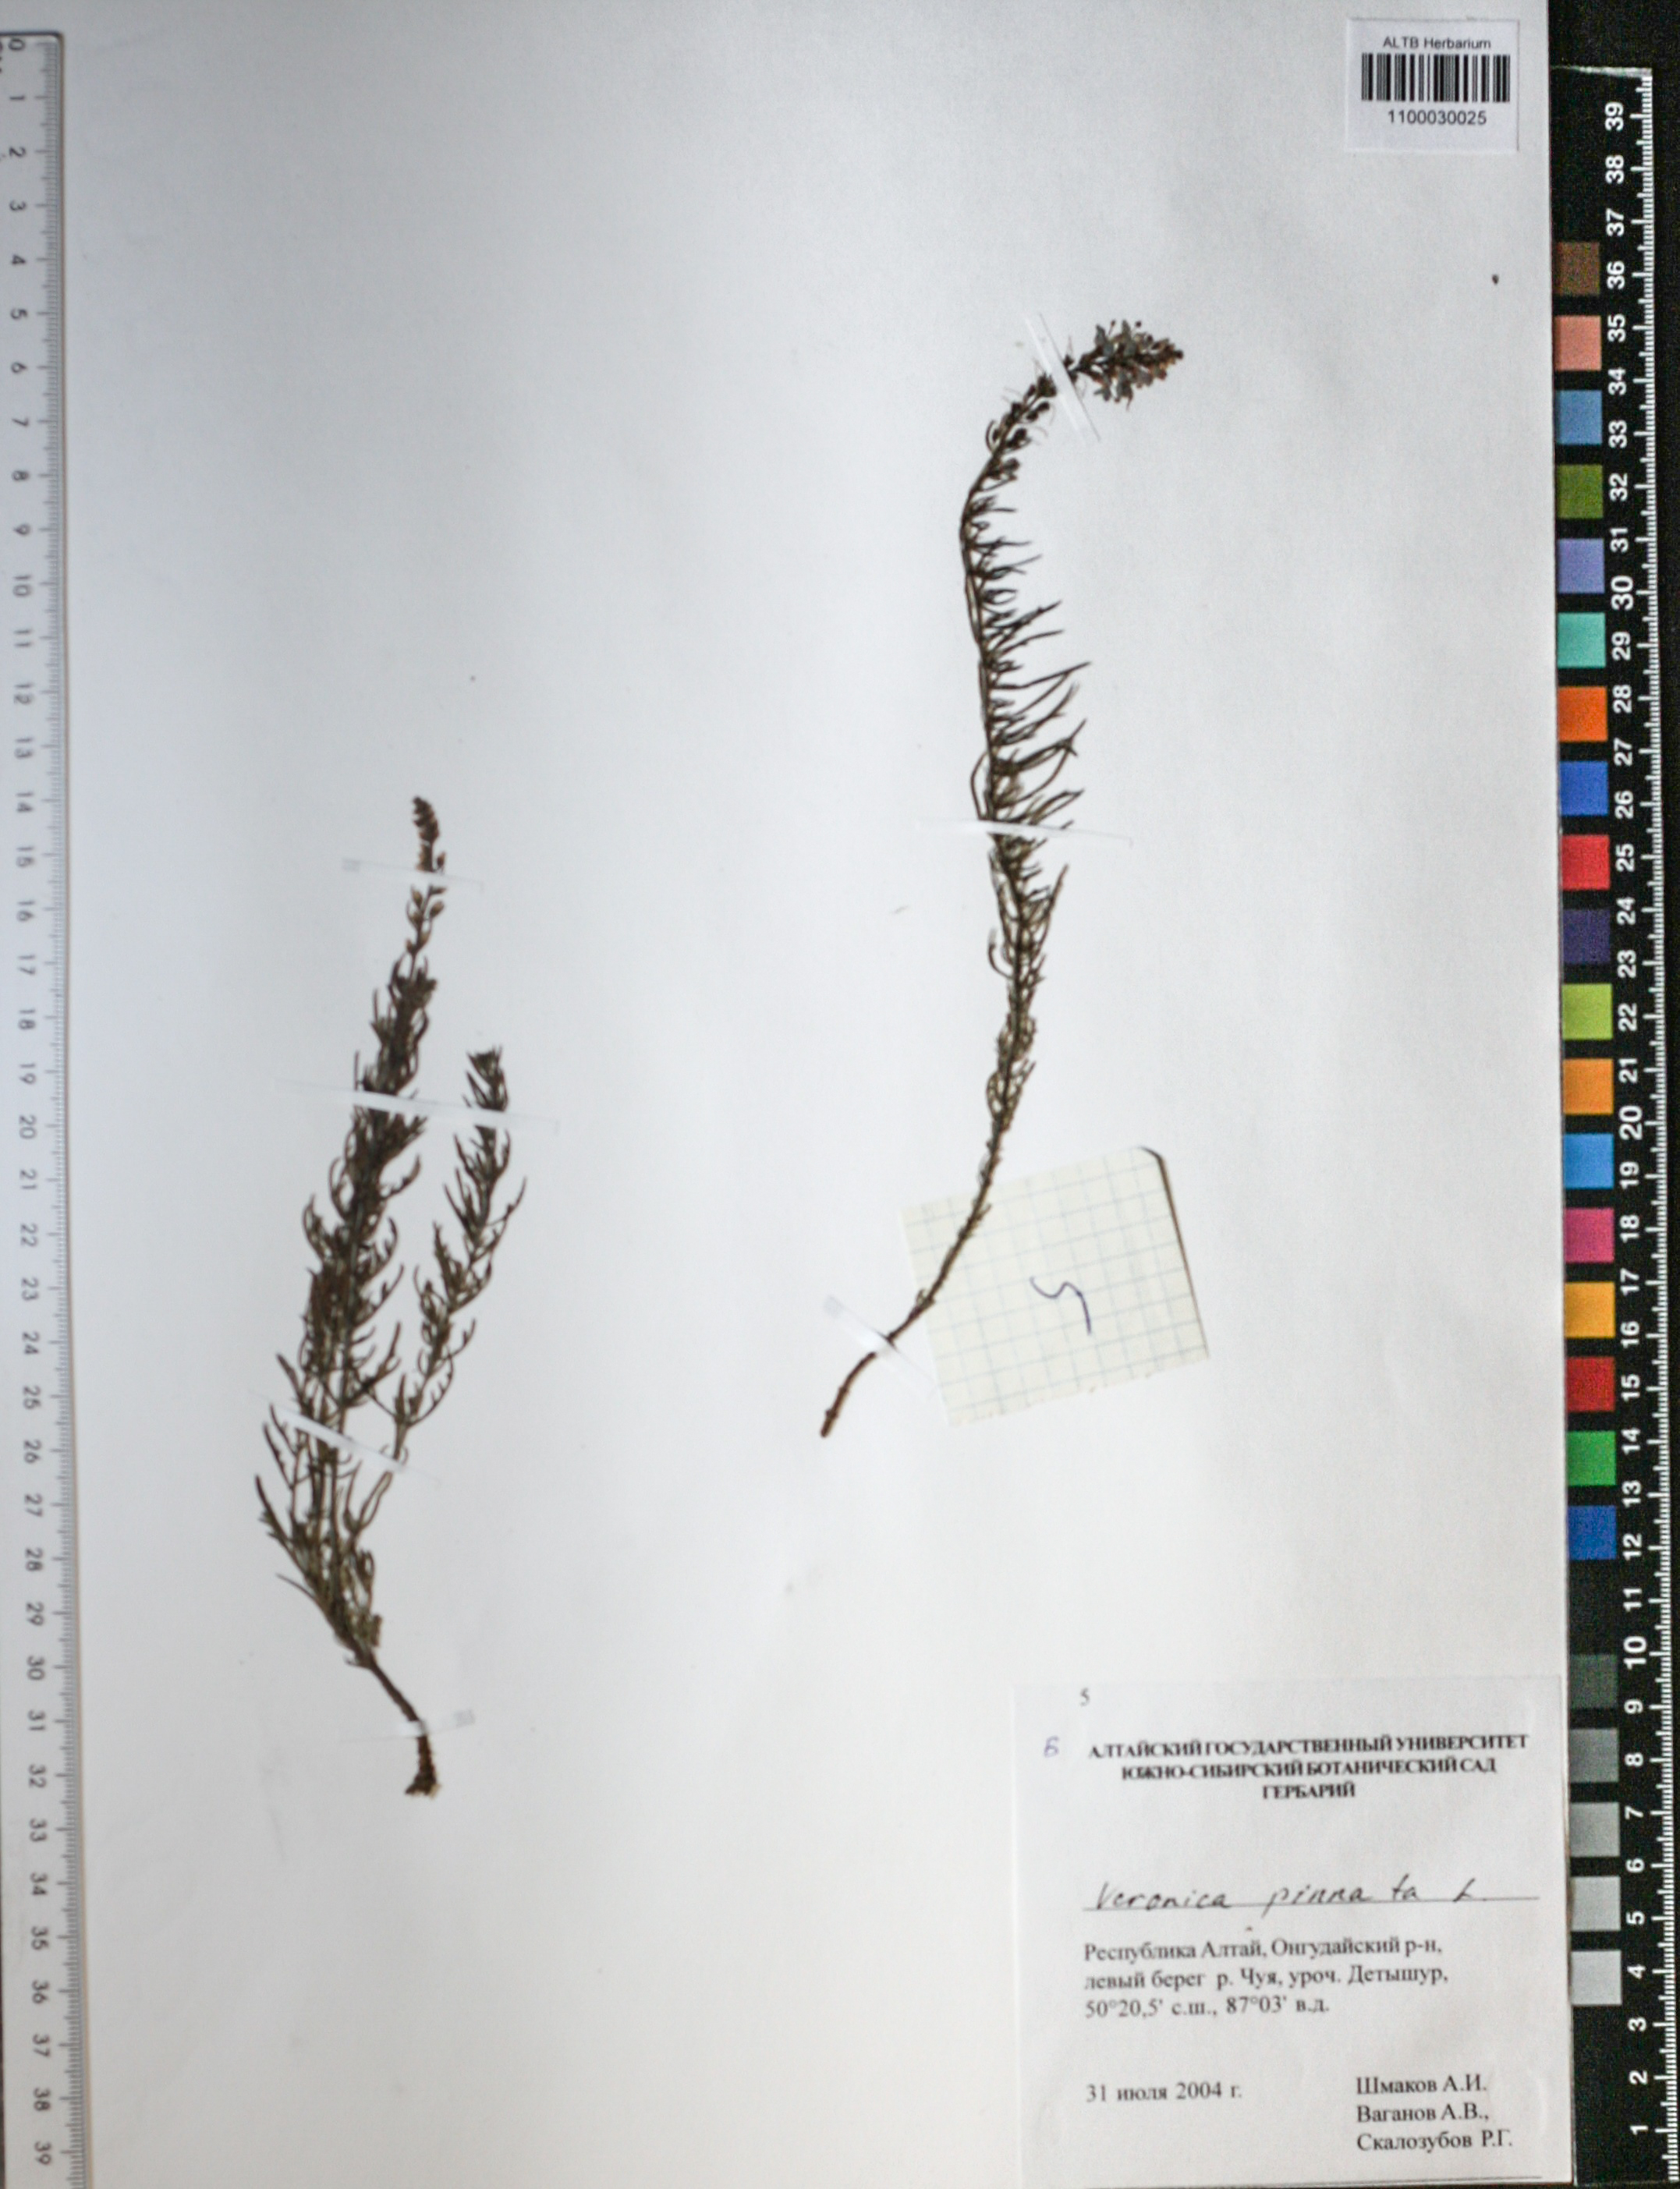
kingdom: Plantae
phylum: Tracheophyta
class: Magnoliopsida
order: Lamiales
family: Plantaginaceae
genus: Veronica
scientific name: Veronica pinnata
